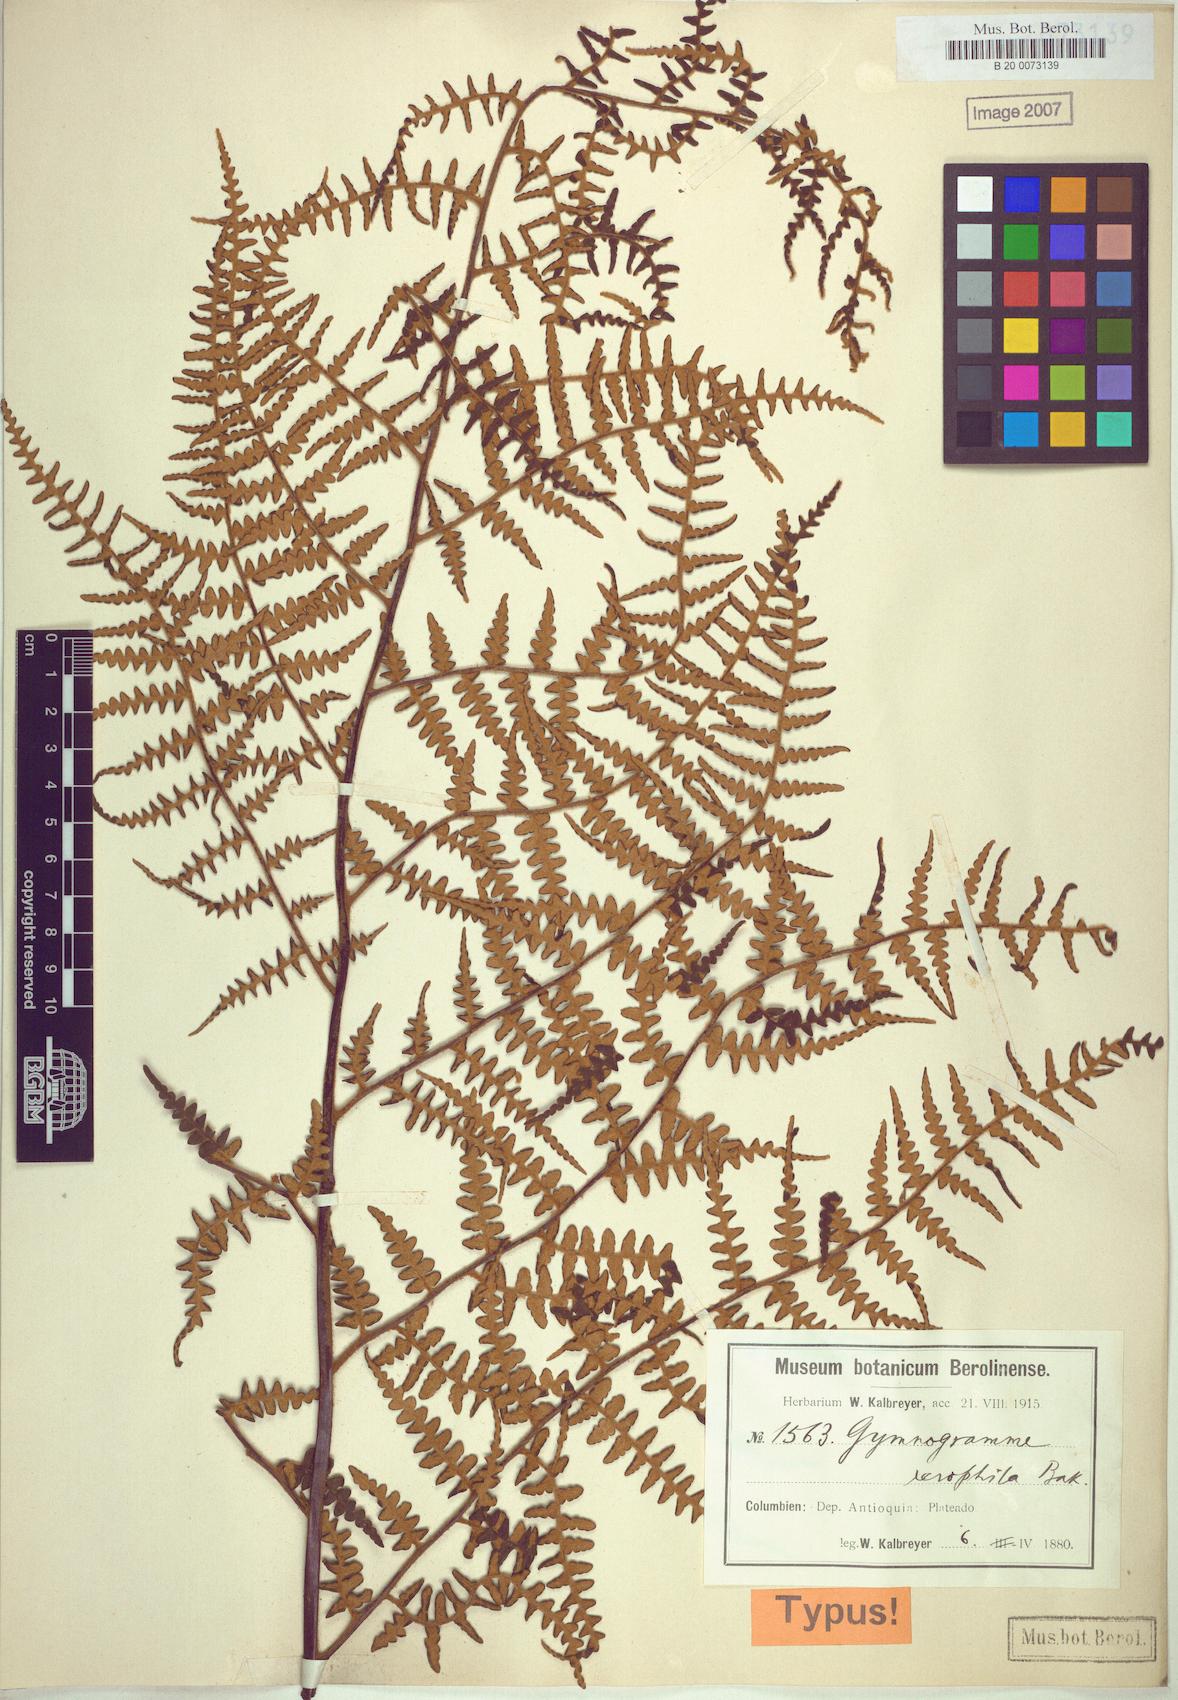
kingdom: Plantae
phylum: Tracheophyta
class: Polypodiopsida
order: Polypodiales
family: Pteridaceae
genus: Pityrogramma
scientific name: Pityrogramma jamesonii
